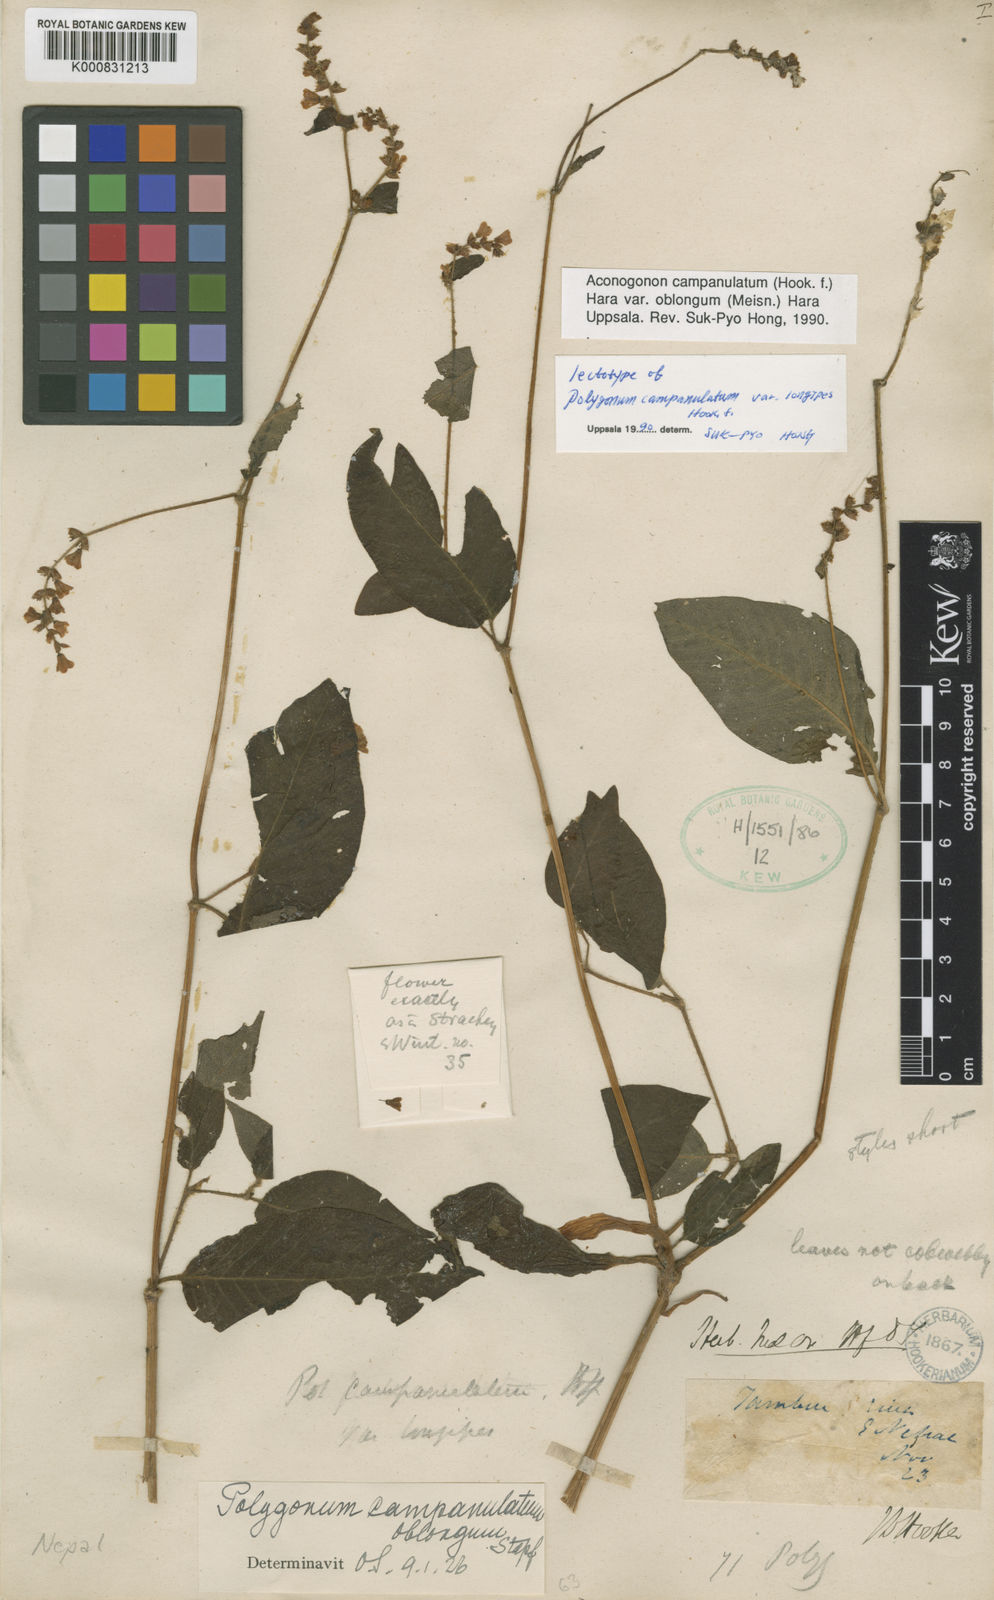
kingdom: Plantae
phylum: Tracheophyta
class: Magnoliopsida
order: Caryophyllales
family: Polygonaceae
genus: Koenigia
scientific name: Koenigia campanulata
